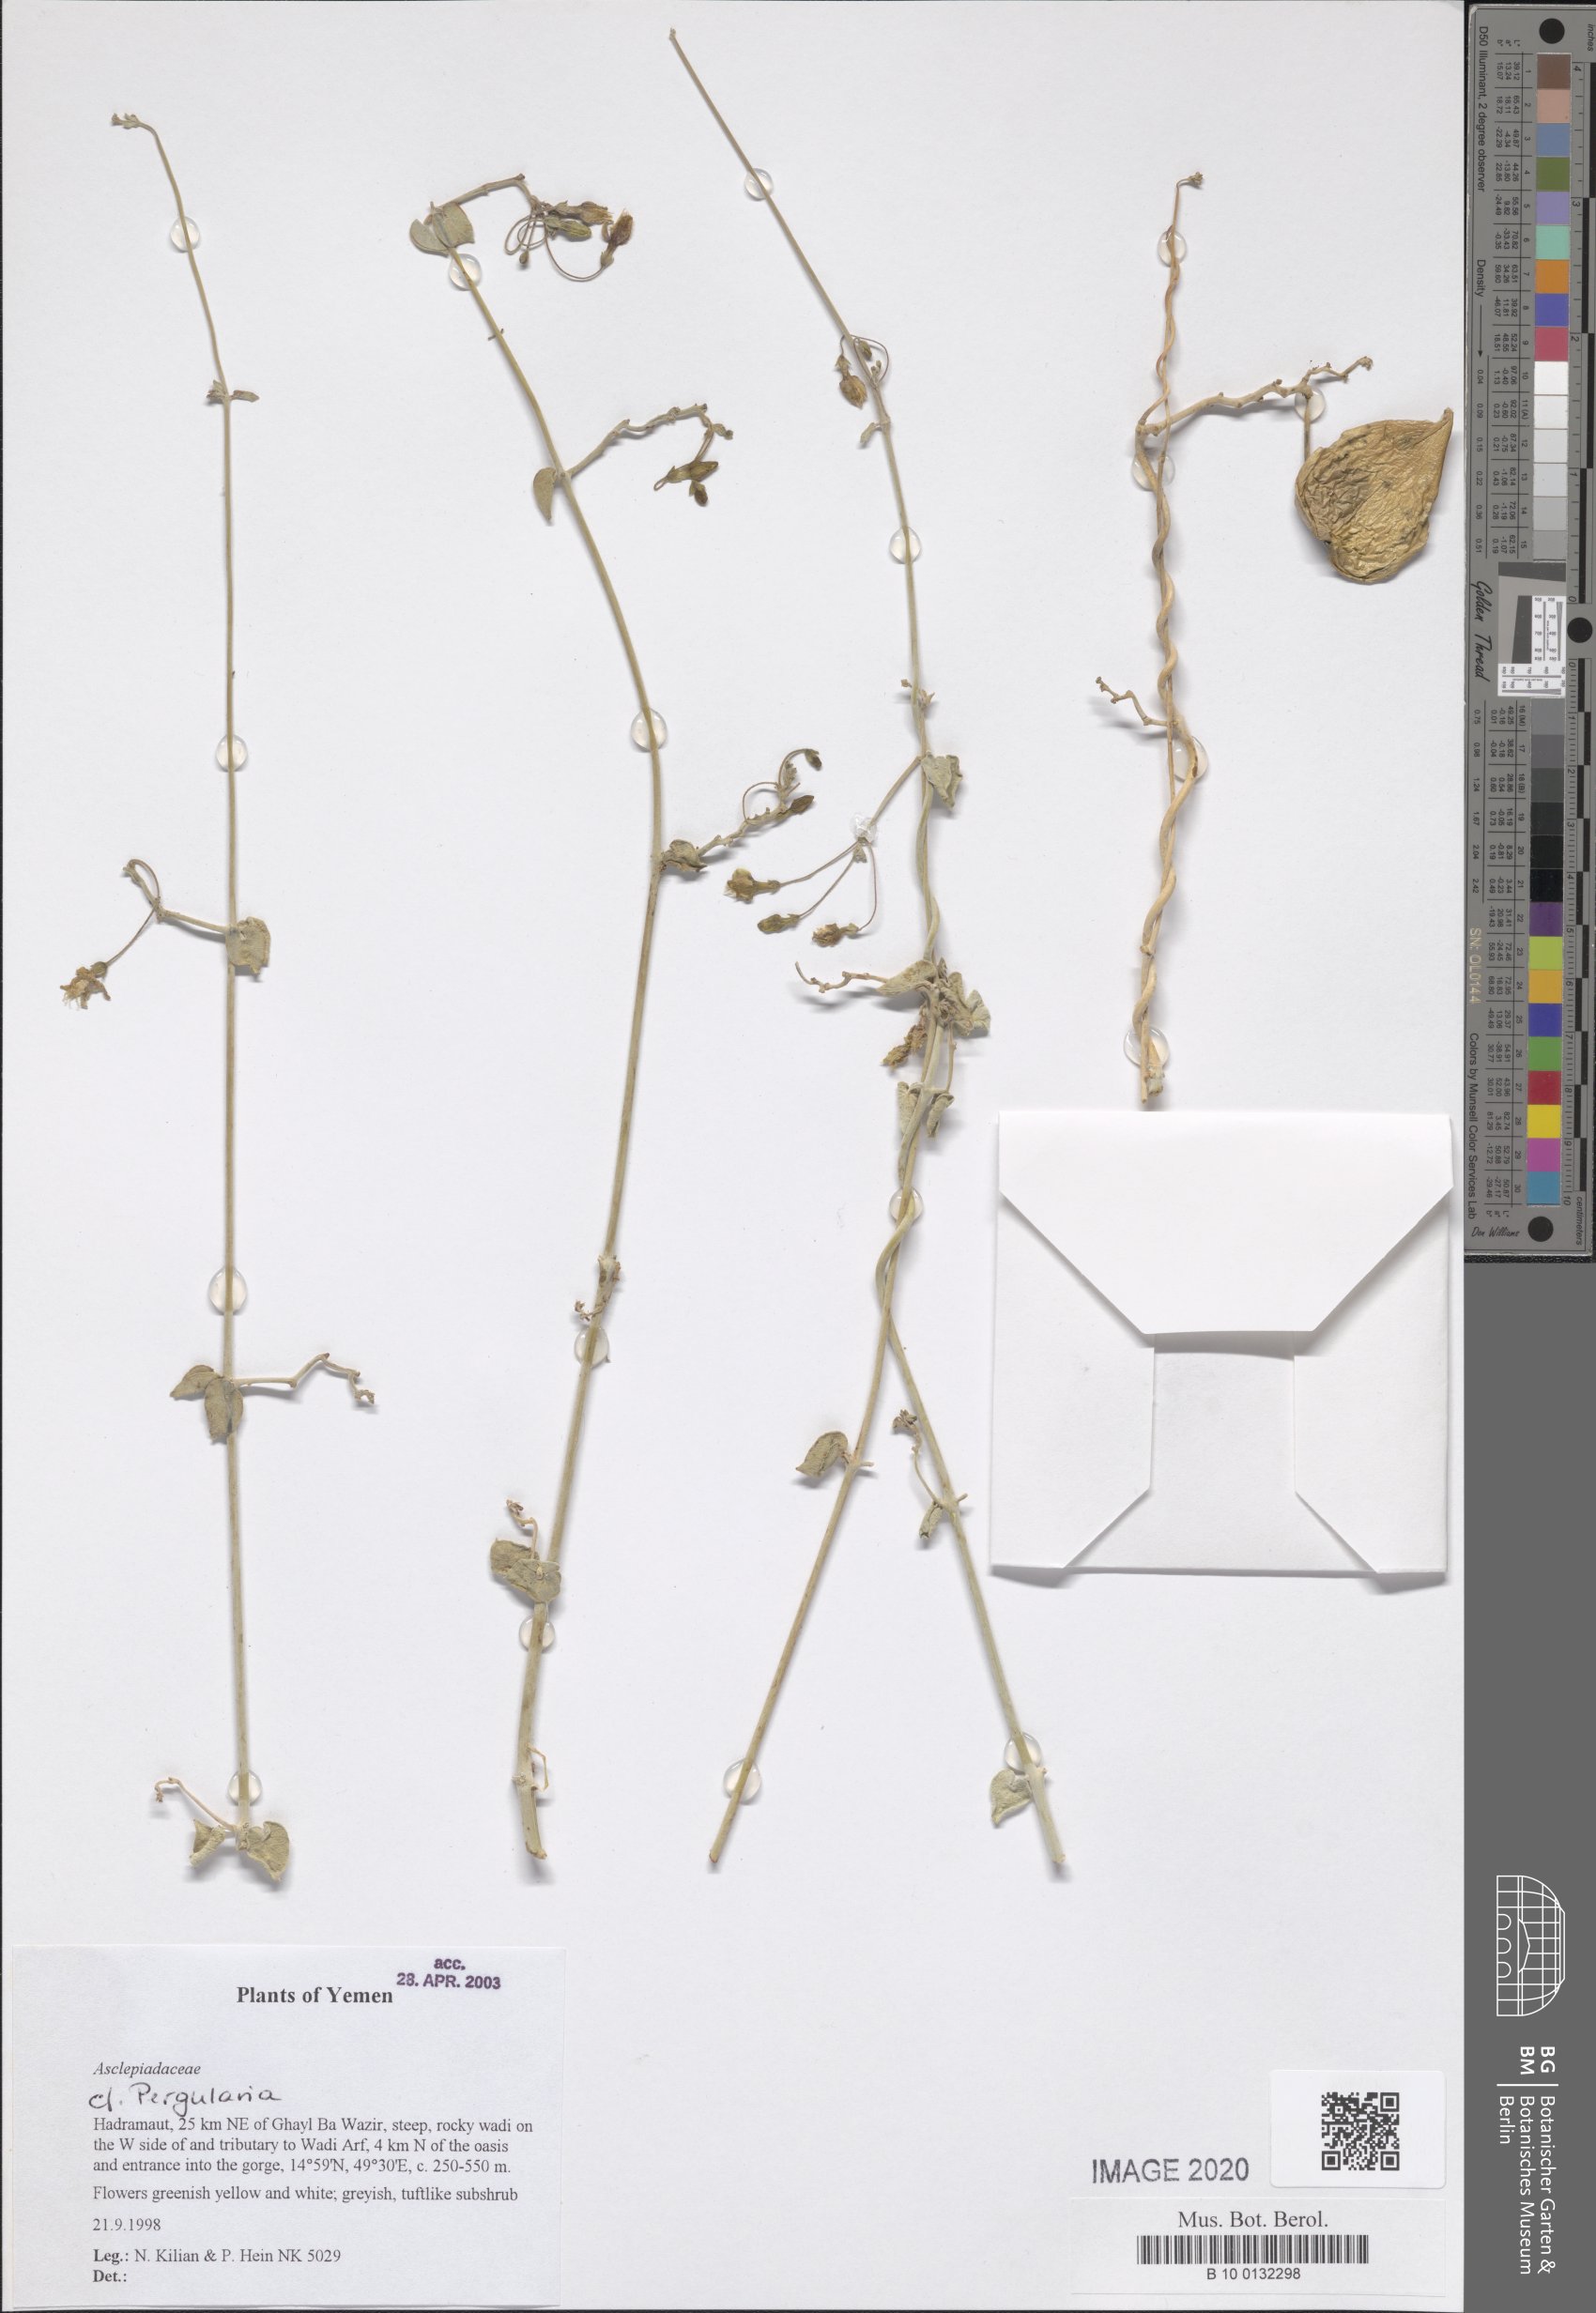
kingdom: Plantae
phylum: Tracheophyta
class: Magnoliopsida
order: Gentianales
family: Apocynaceae
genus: Pergularia
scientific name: Pergularia tomentosa
